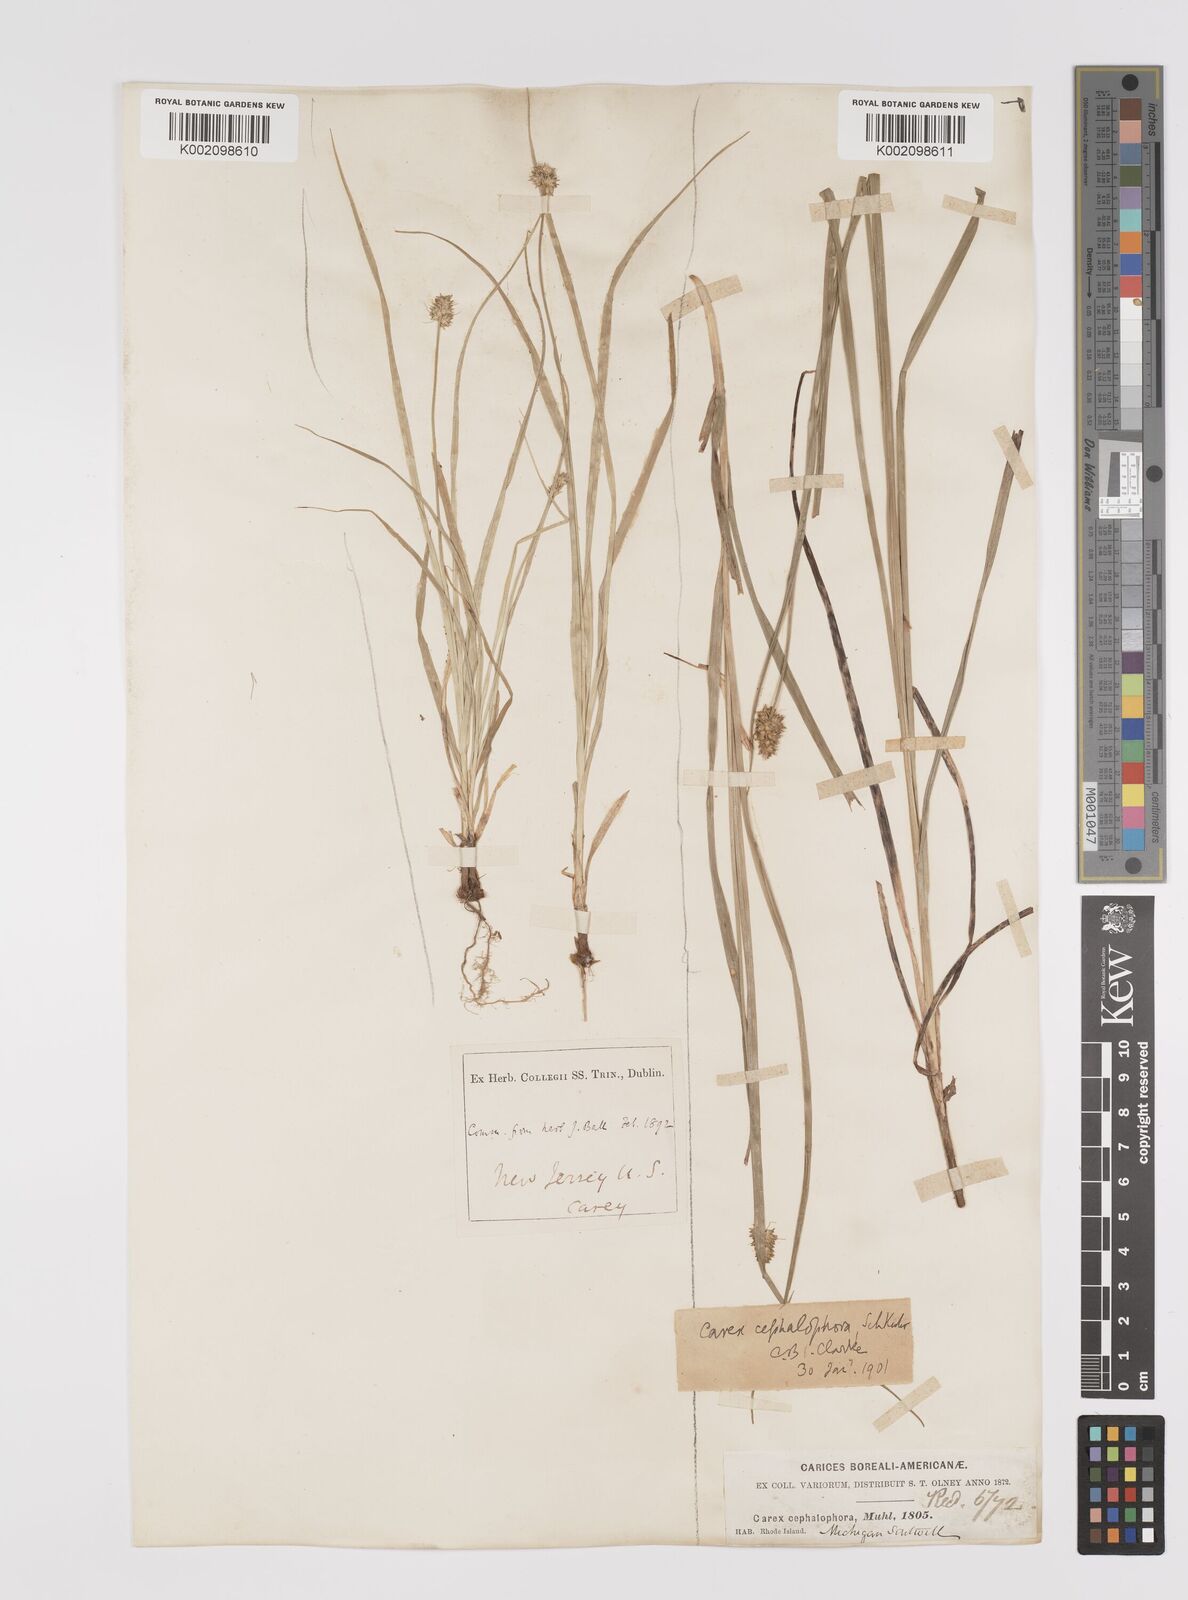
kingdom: Plantae
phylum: Tracheophyta
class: Liliopsida
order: Poales
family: Cyperaceae
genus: Carex
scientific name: Carex cephalophora
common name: Oval-headed sedge
